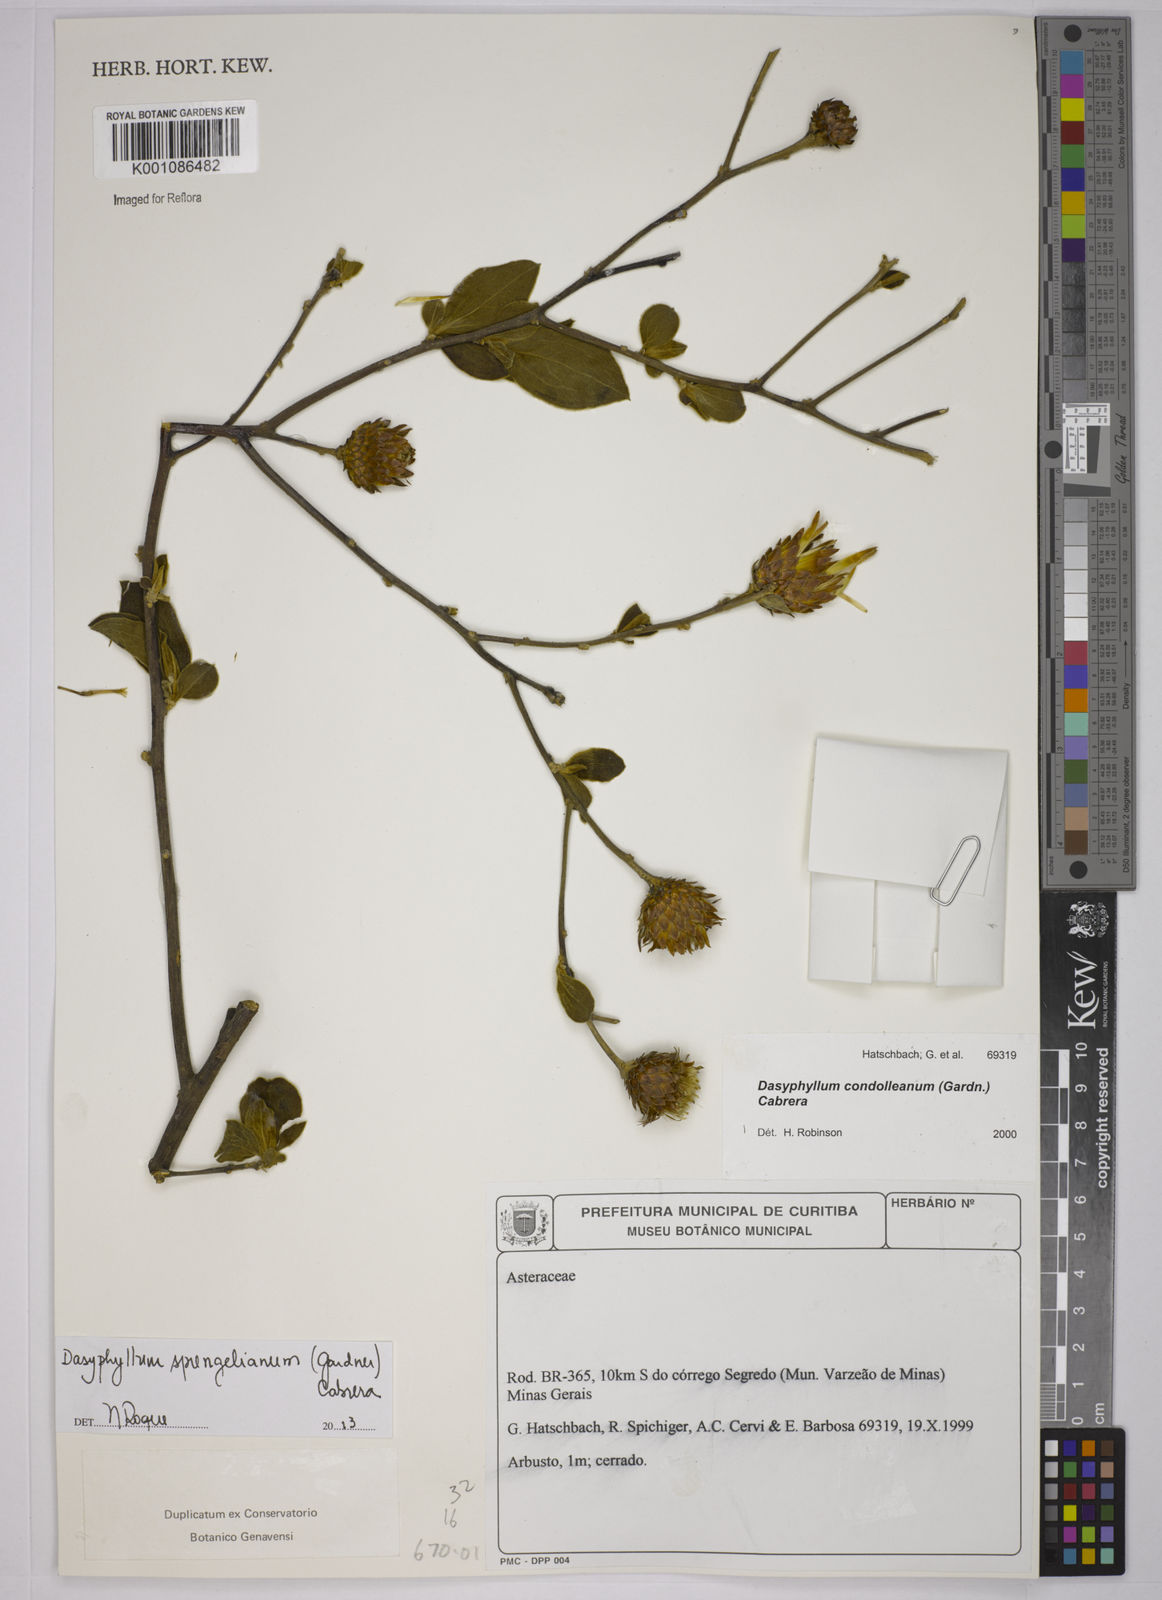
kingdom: Plantae
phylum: Tracheophyta
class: Magnoliopsida
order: Asterales
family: Asteraceae
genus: Dasyphyllum
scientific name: Dasyphyllum sprengelianum
